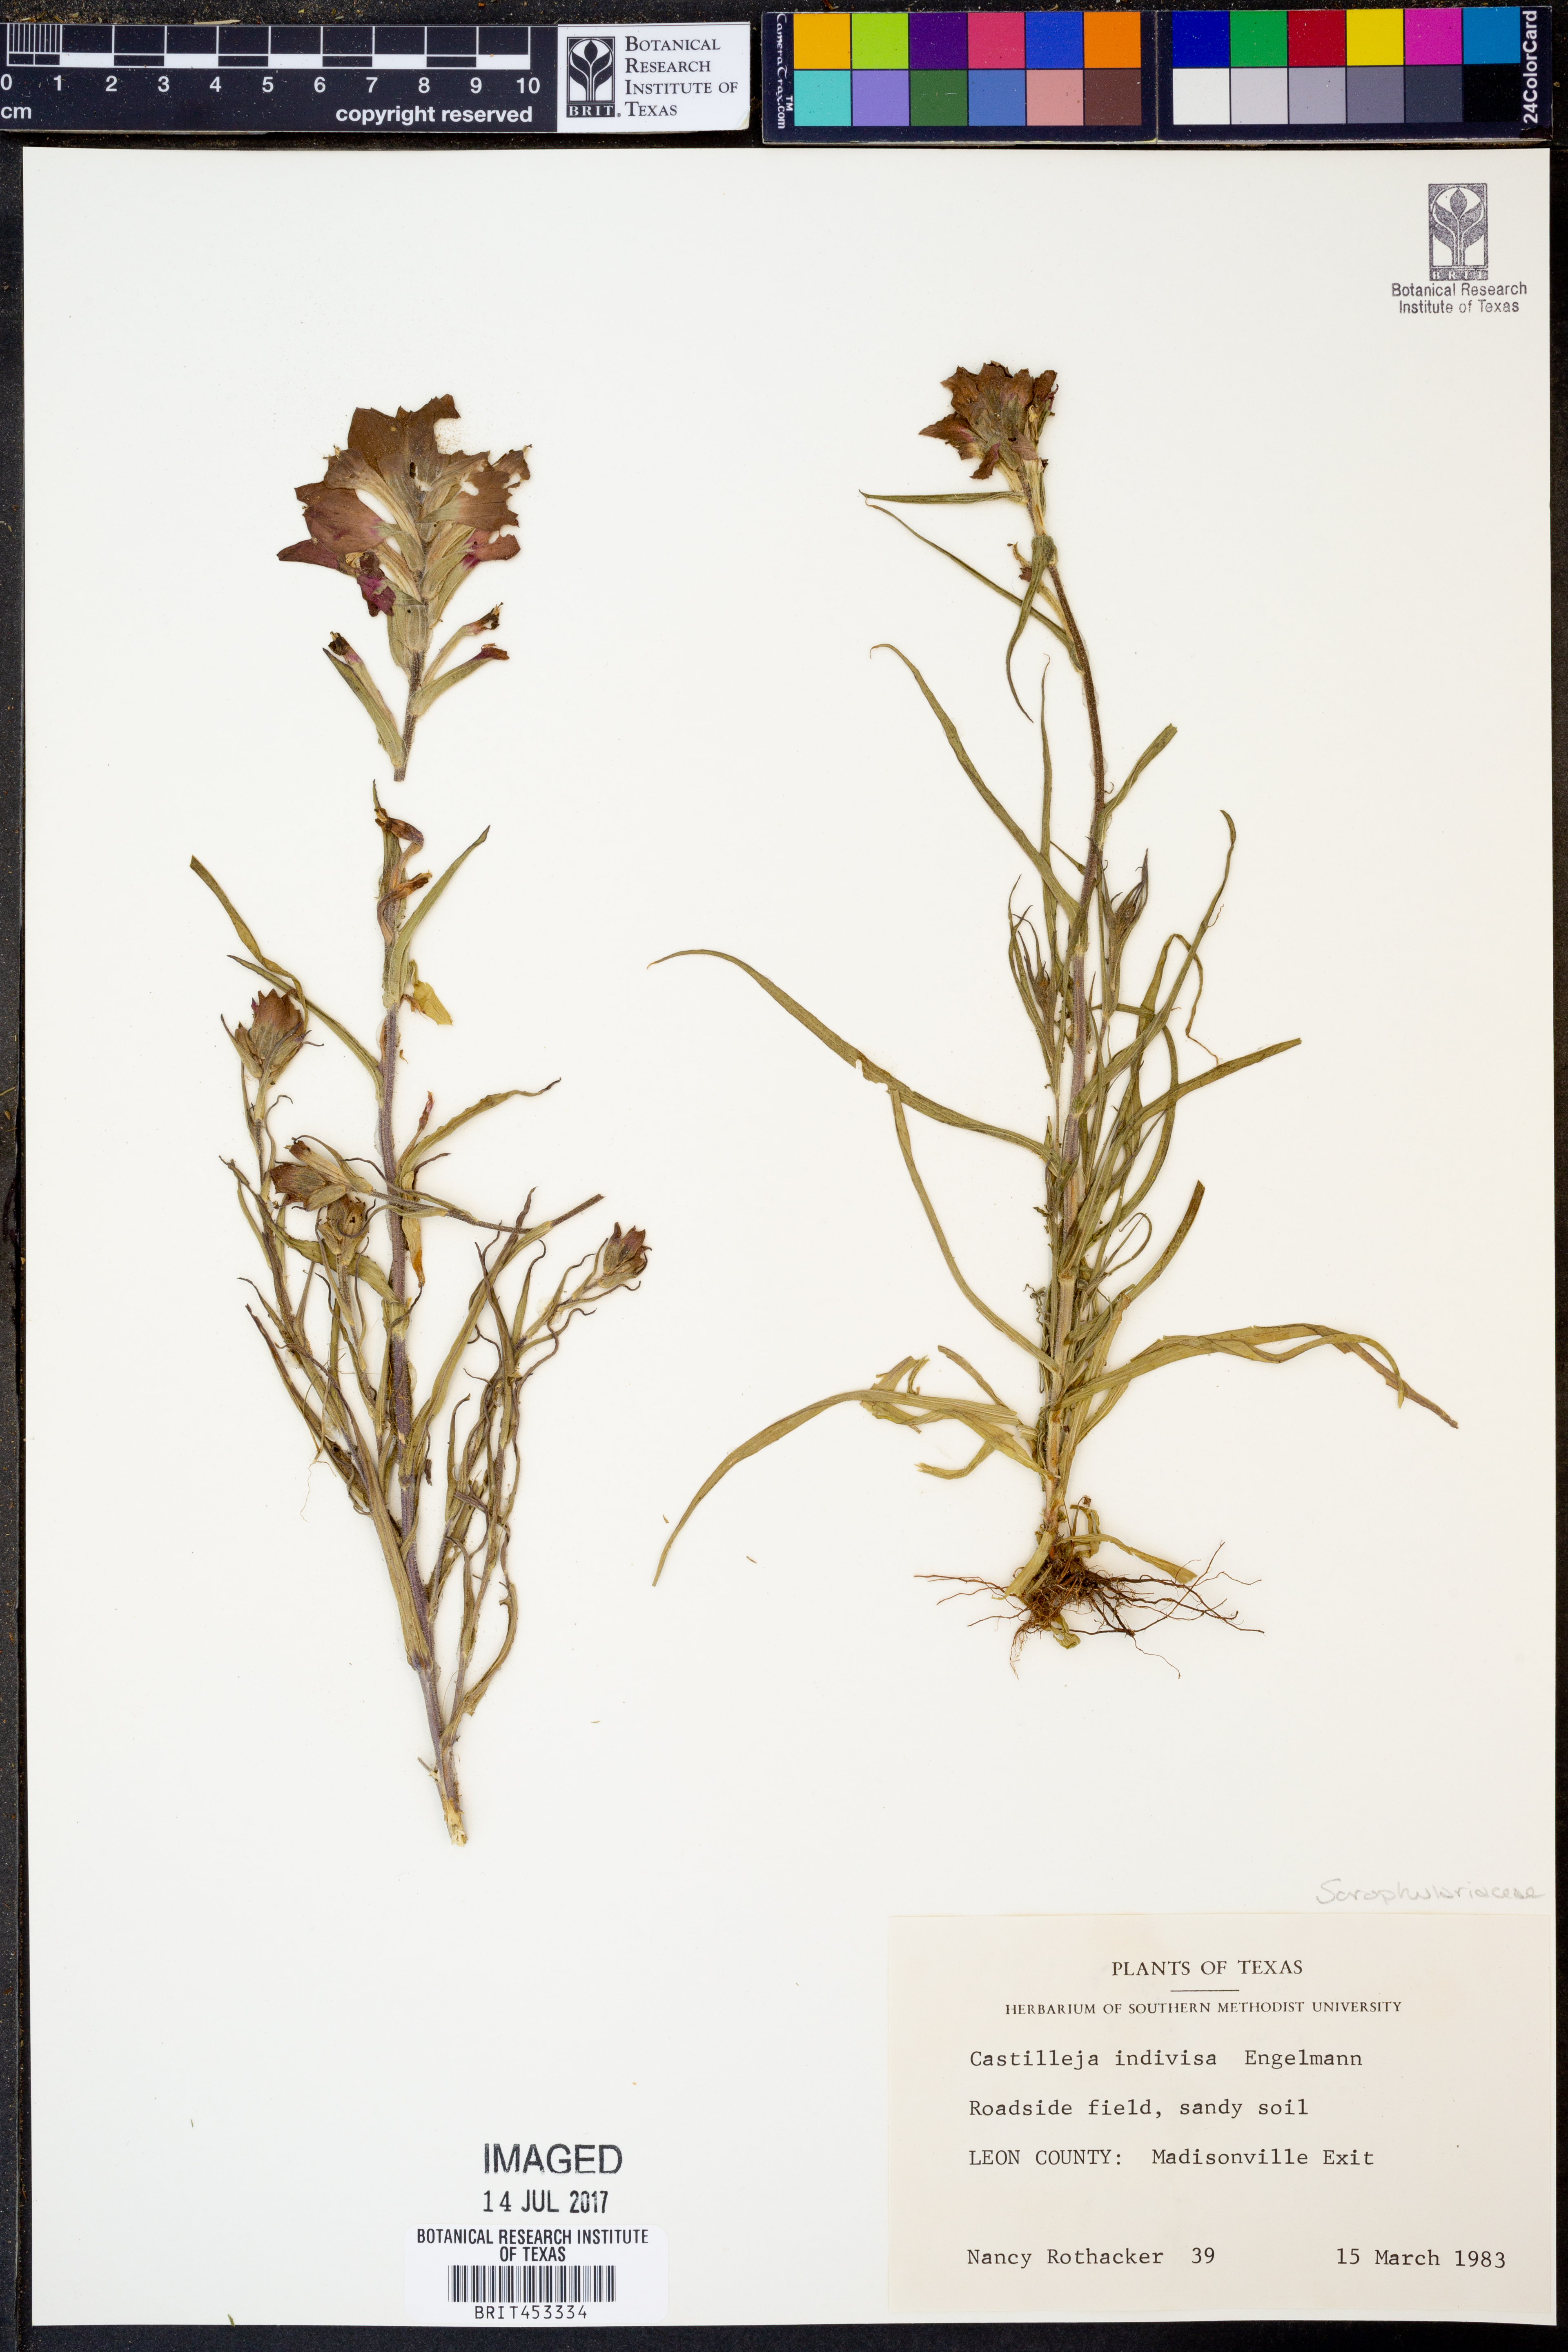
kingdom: Plantae
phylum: Tracheophyta
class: Magnoliopsida
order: Lamiales
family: Orobanchaceae
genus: Castilleja
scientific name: Castilleja indivisa
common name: Texas paintbrush
